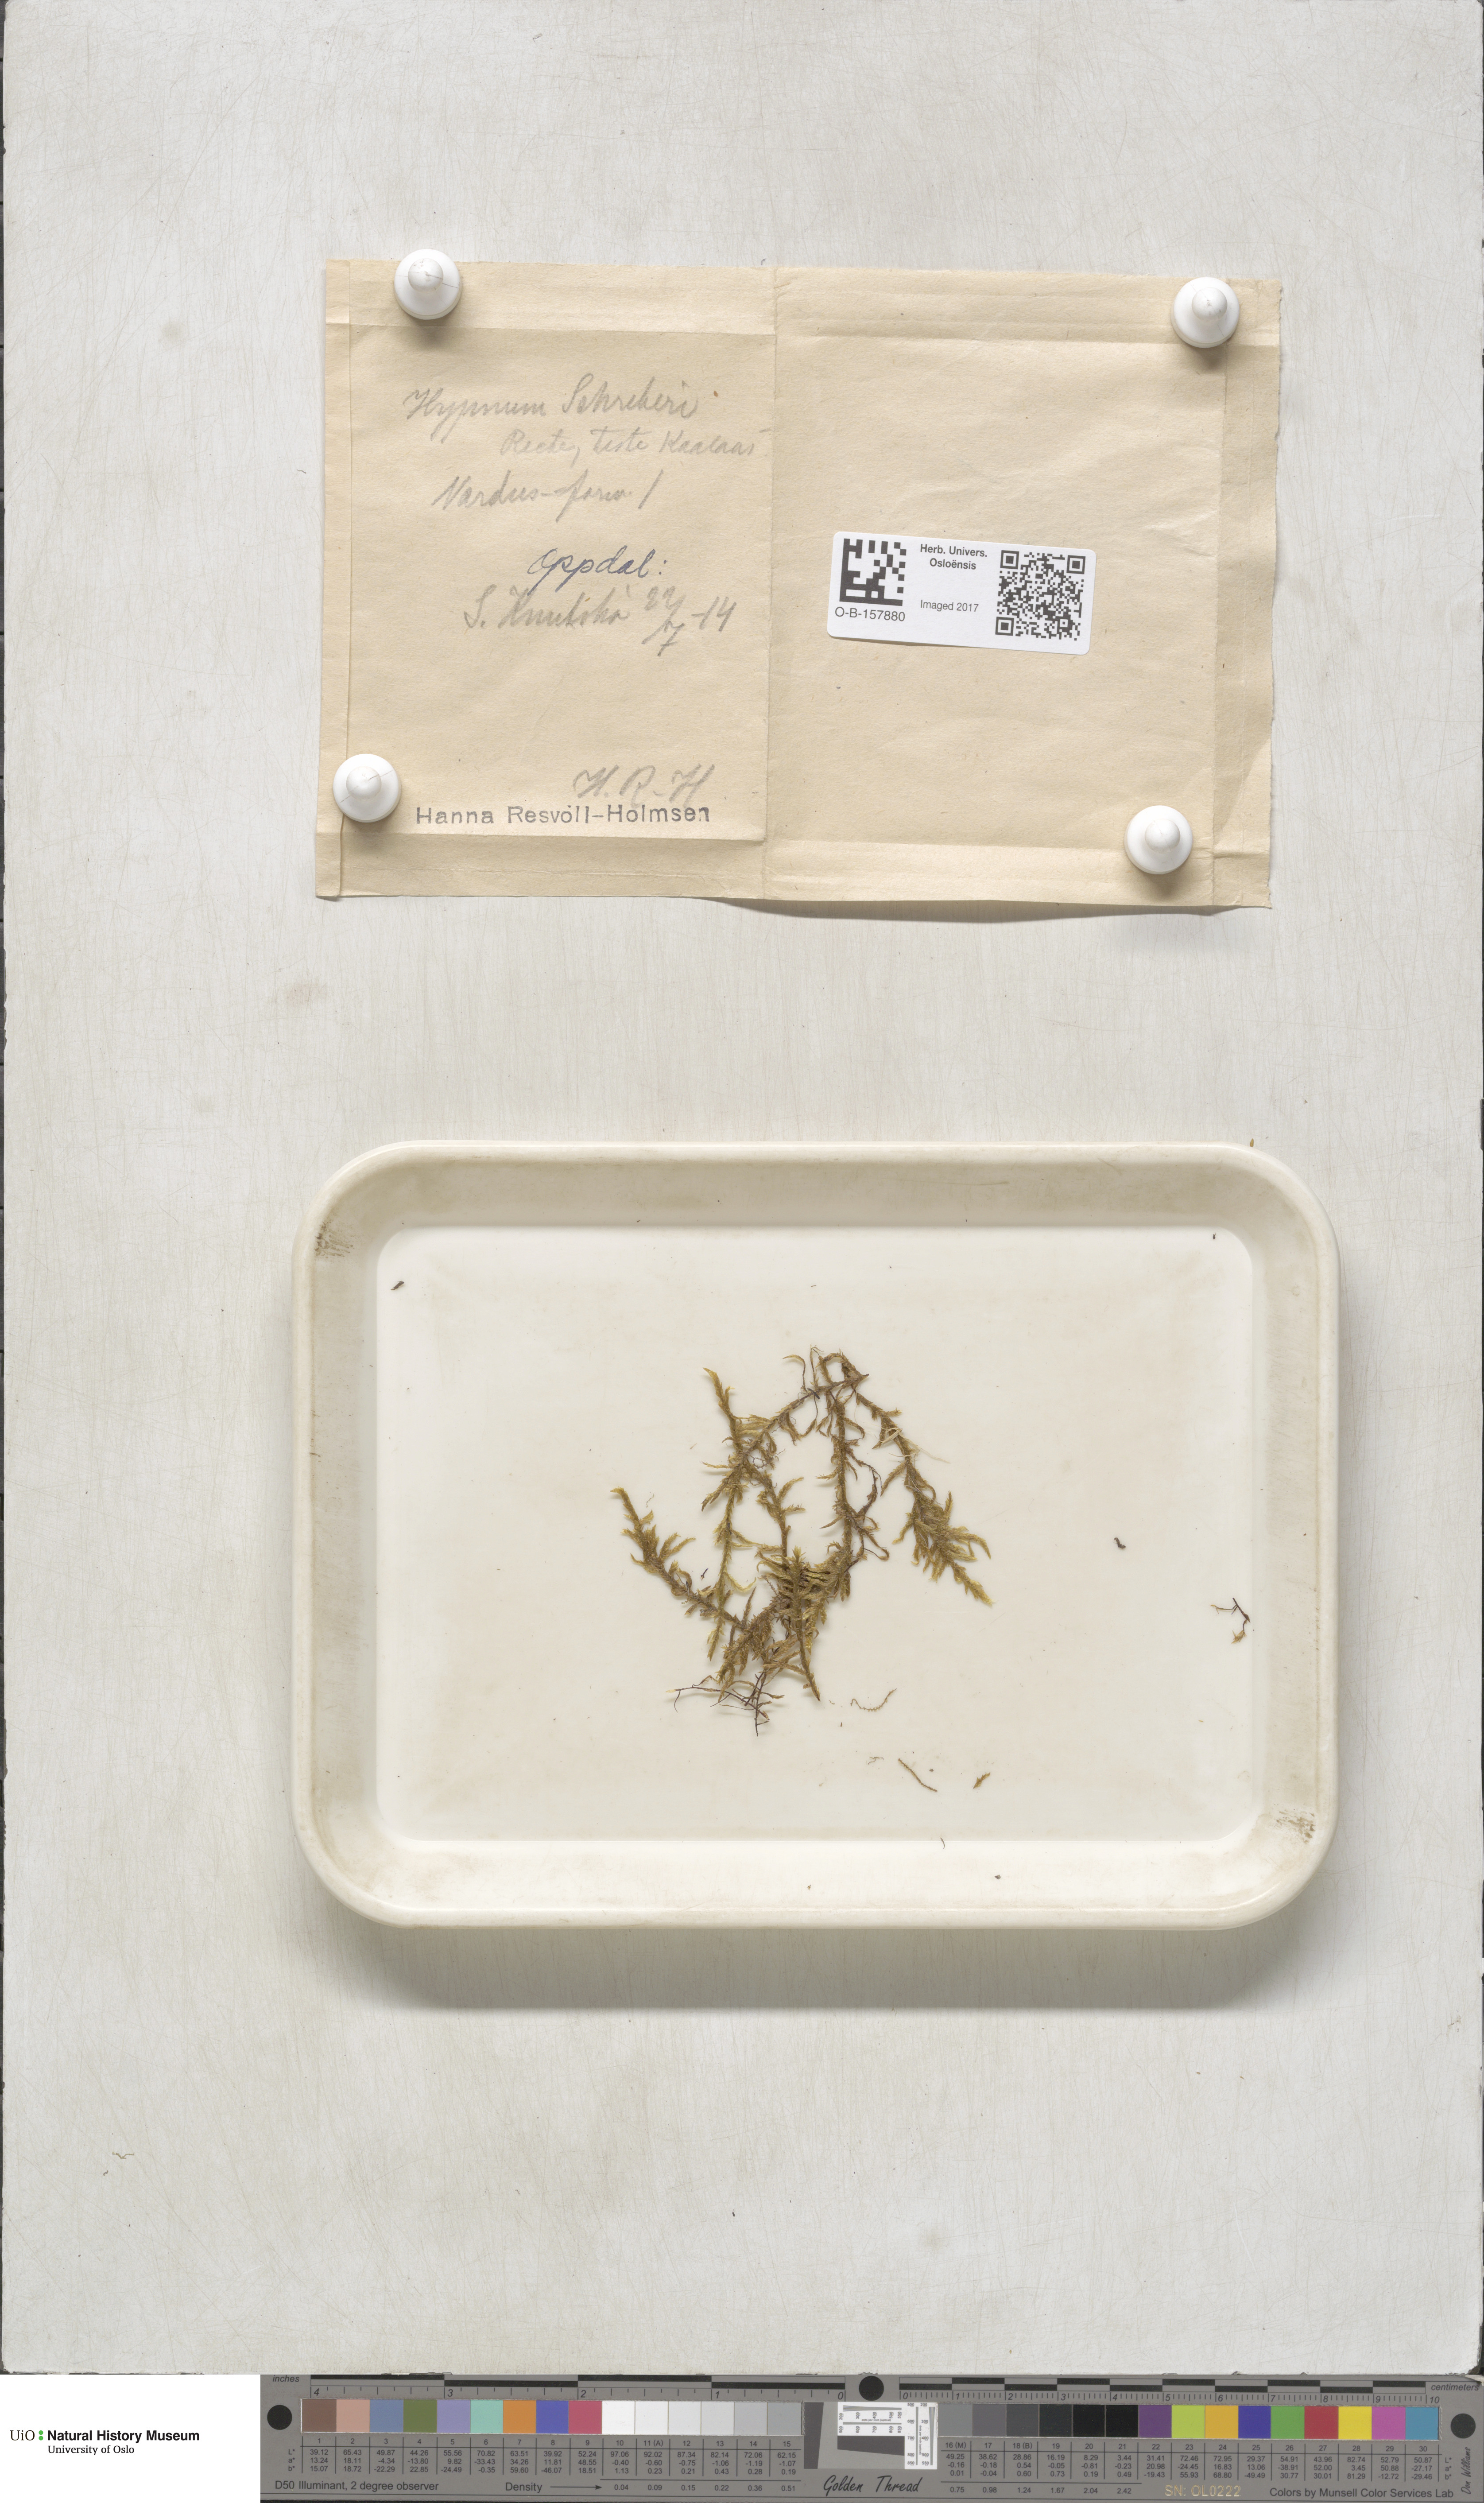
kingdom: Plantae
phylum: Bryophyta
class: Bryopsida
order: Hypnales
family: Hylocomiaceae
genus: Pleurozium
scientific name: Pleurozium schreberi
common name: Red-stemmed feather moss
